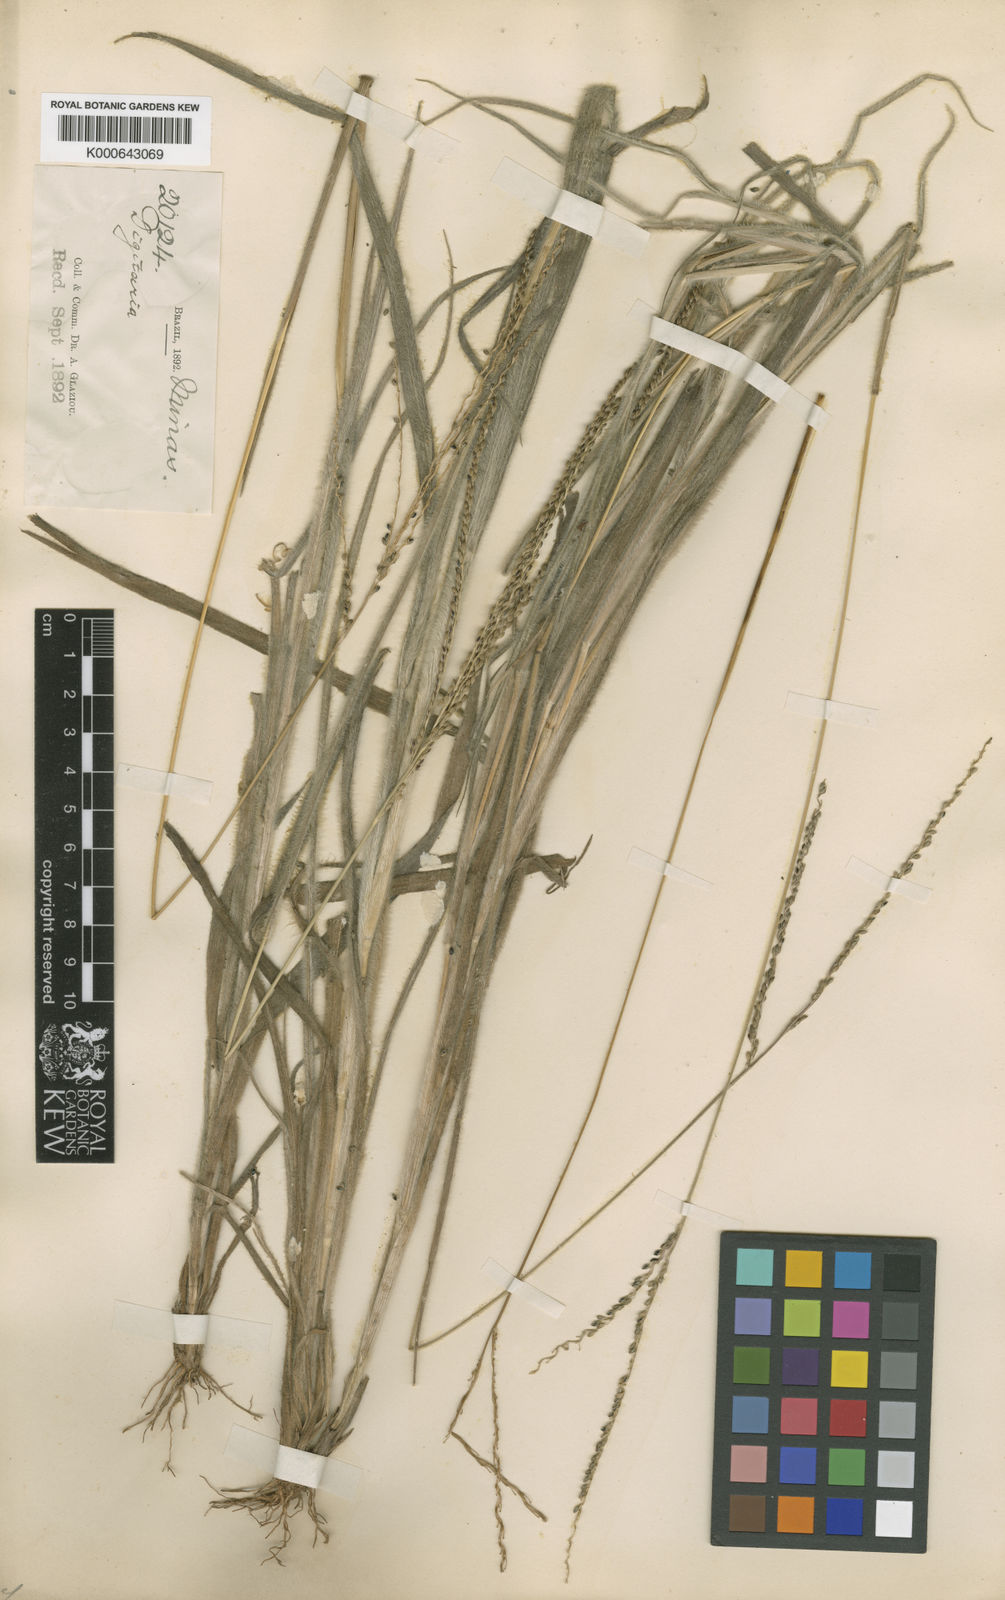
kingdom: Plantae
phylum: Tracheophyta
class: Liliopsida
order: Poales
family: Poaceae
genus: Digitaria
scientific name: Digitaria corynotricha
